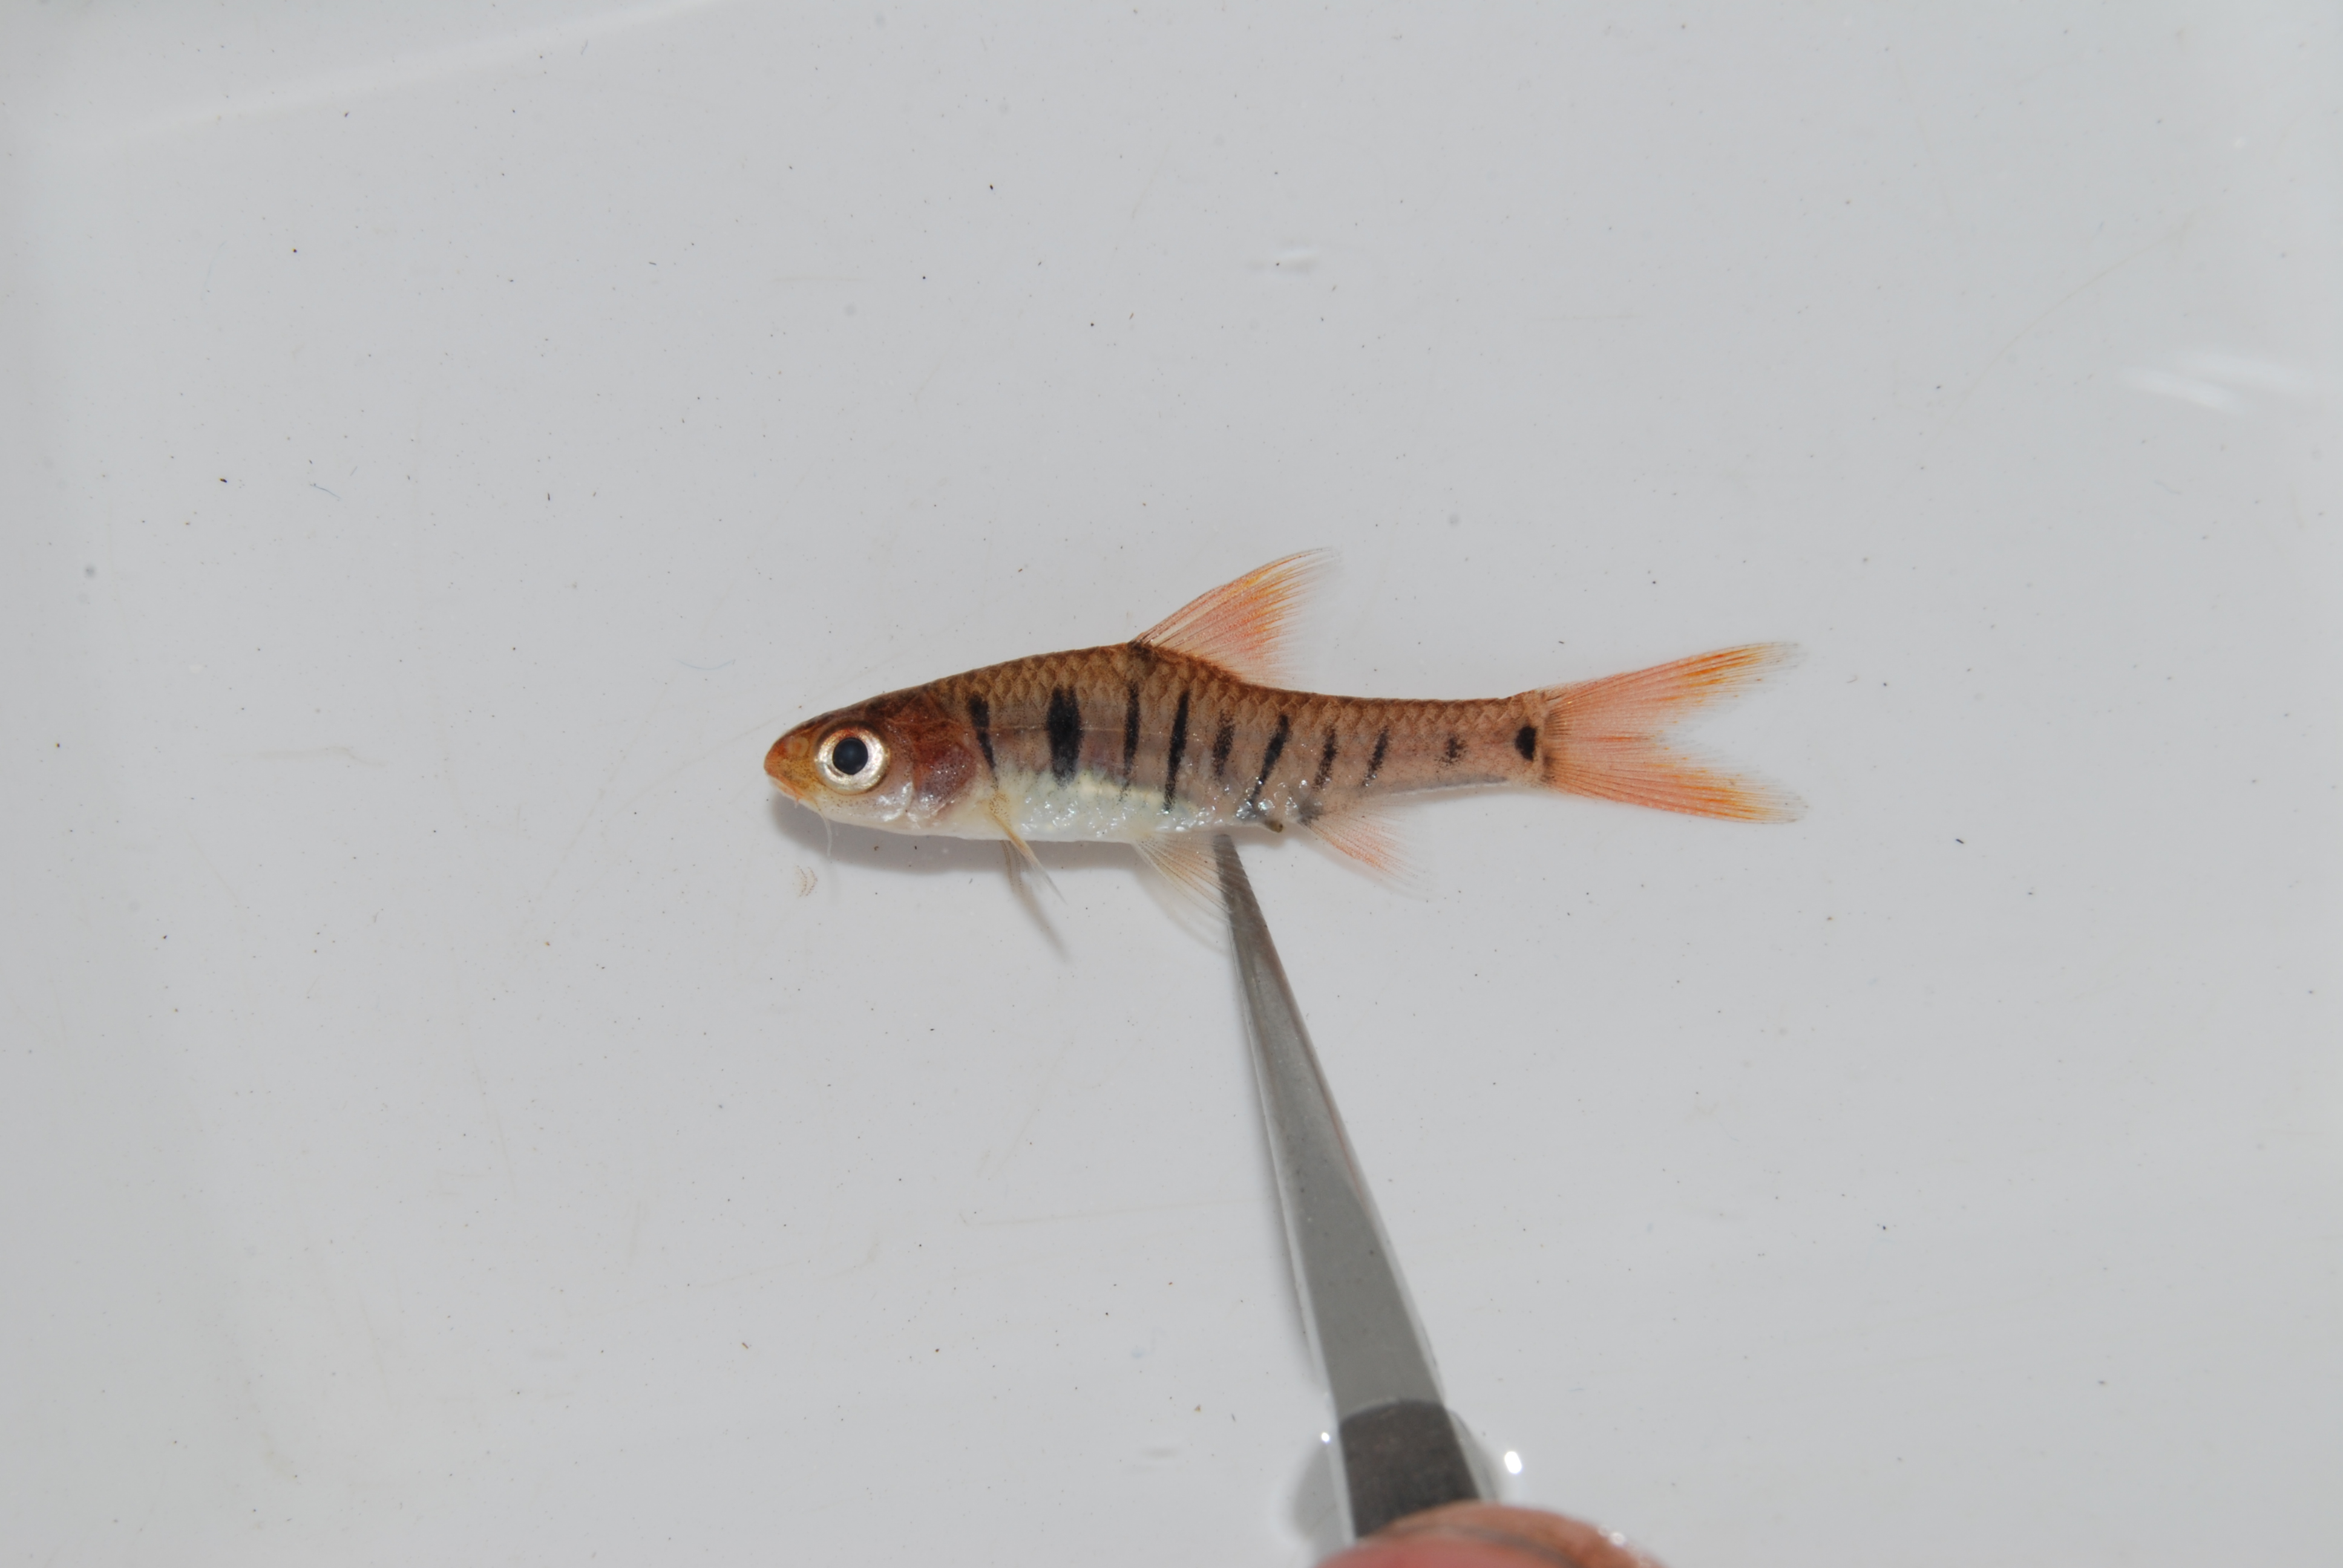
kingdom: Animalia
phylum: Chordata
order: Cypriniformes
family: Cyprinidae
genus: Enteromius
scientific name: Enteromius fasciolatus
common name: Red barb
